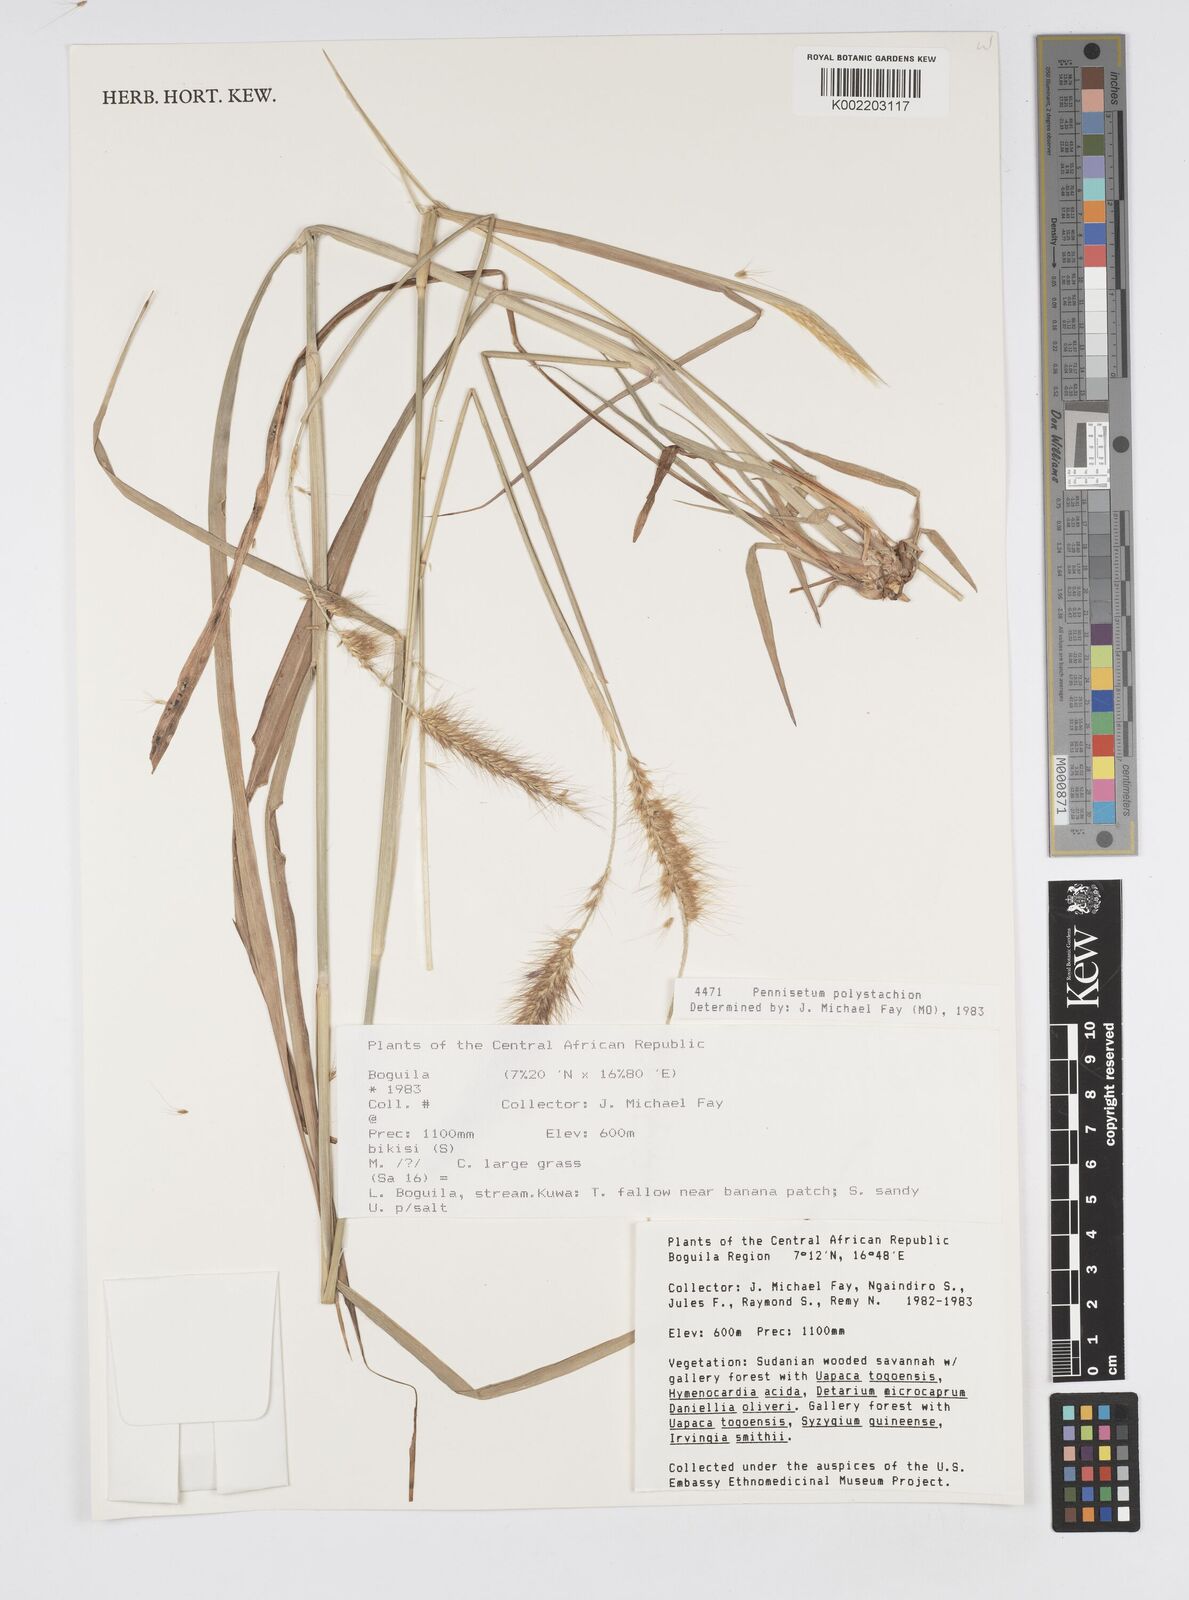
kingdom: Plantae
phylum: Tracheophyta
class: Liliopsida
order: Poales
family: Poaceae
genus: Setaria
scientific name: Setaria parviflora
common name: Knotroot bristle-grass
